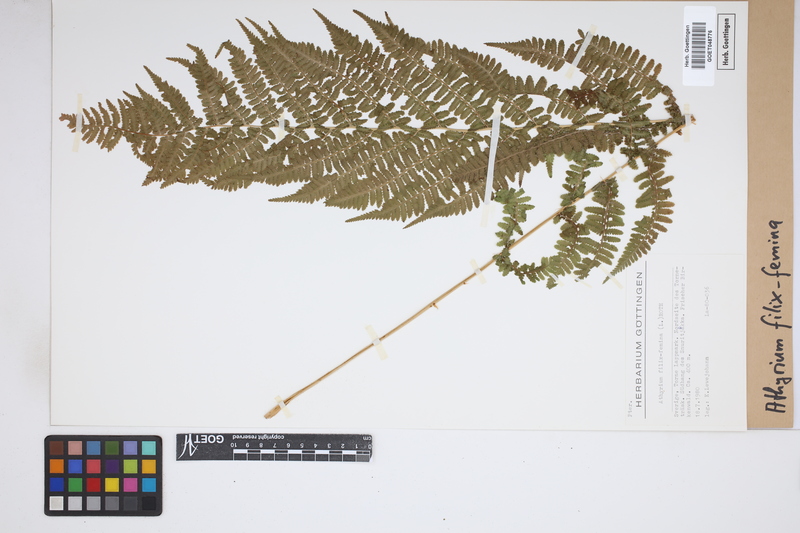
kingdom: Plantae
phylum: Tracheophyta
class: Polypodiopsida
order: Polypodiales
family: Athyriaceae
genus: Athyrium
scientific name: Athyrium filix-femina
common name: Lady fern
